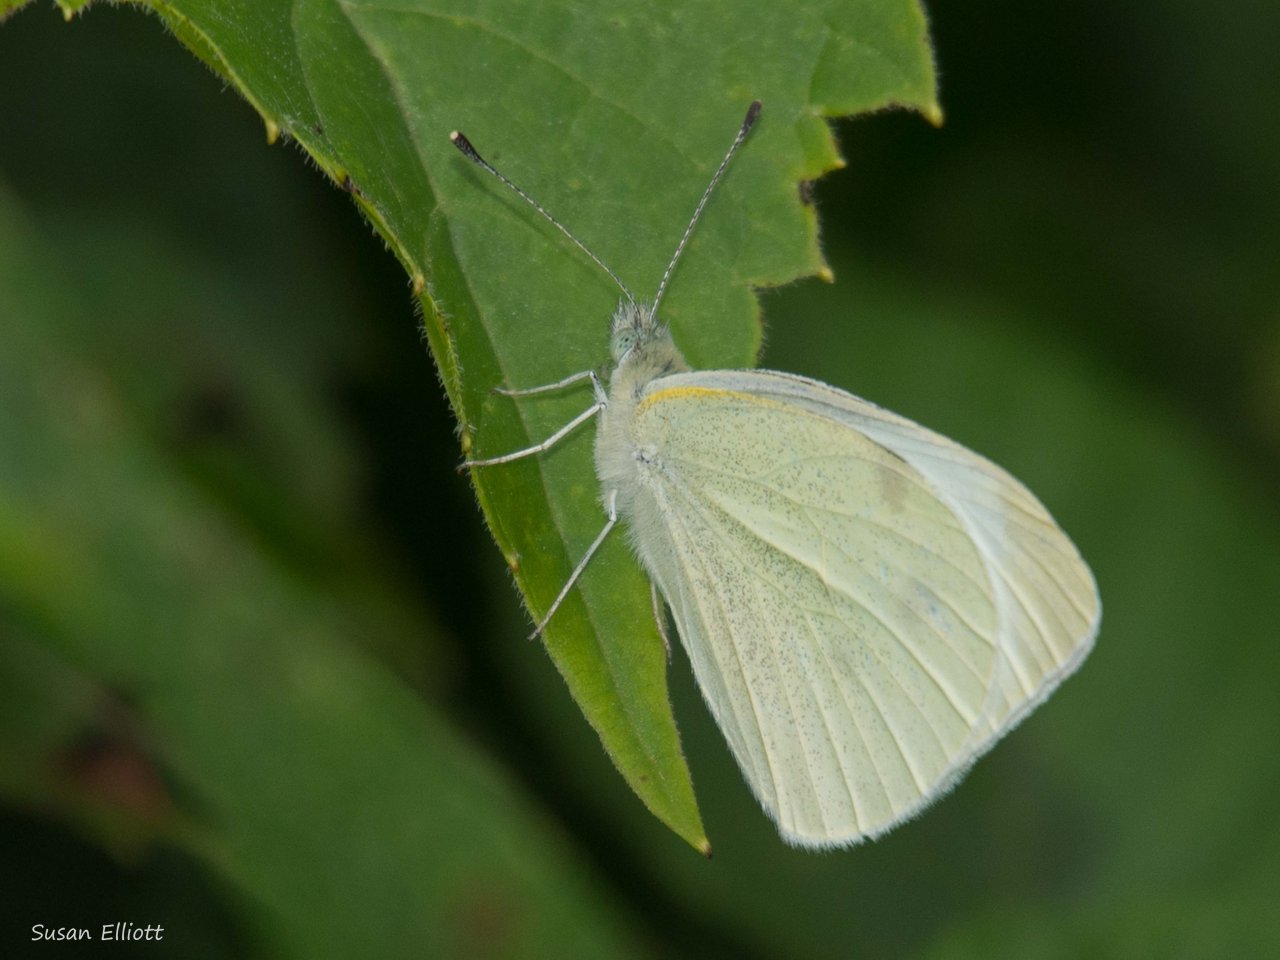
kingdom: Animalia
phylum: Arthropoda
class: Insecta
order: Lepidoptera
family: Pieridae
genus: Pieris
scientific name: Pieris rapae
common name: Cabbage White
